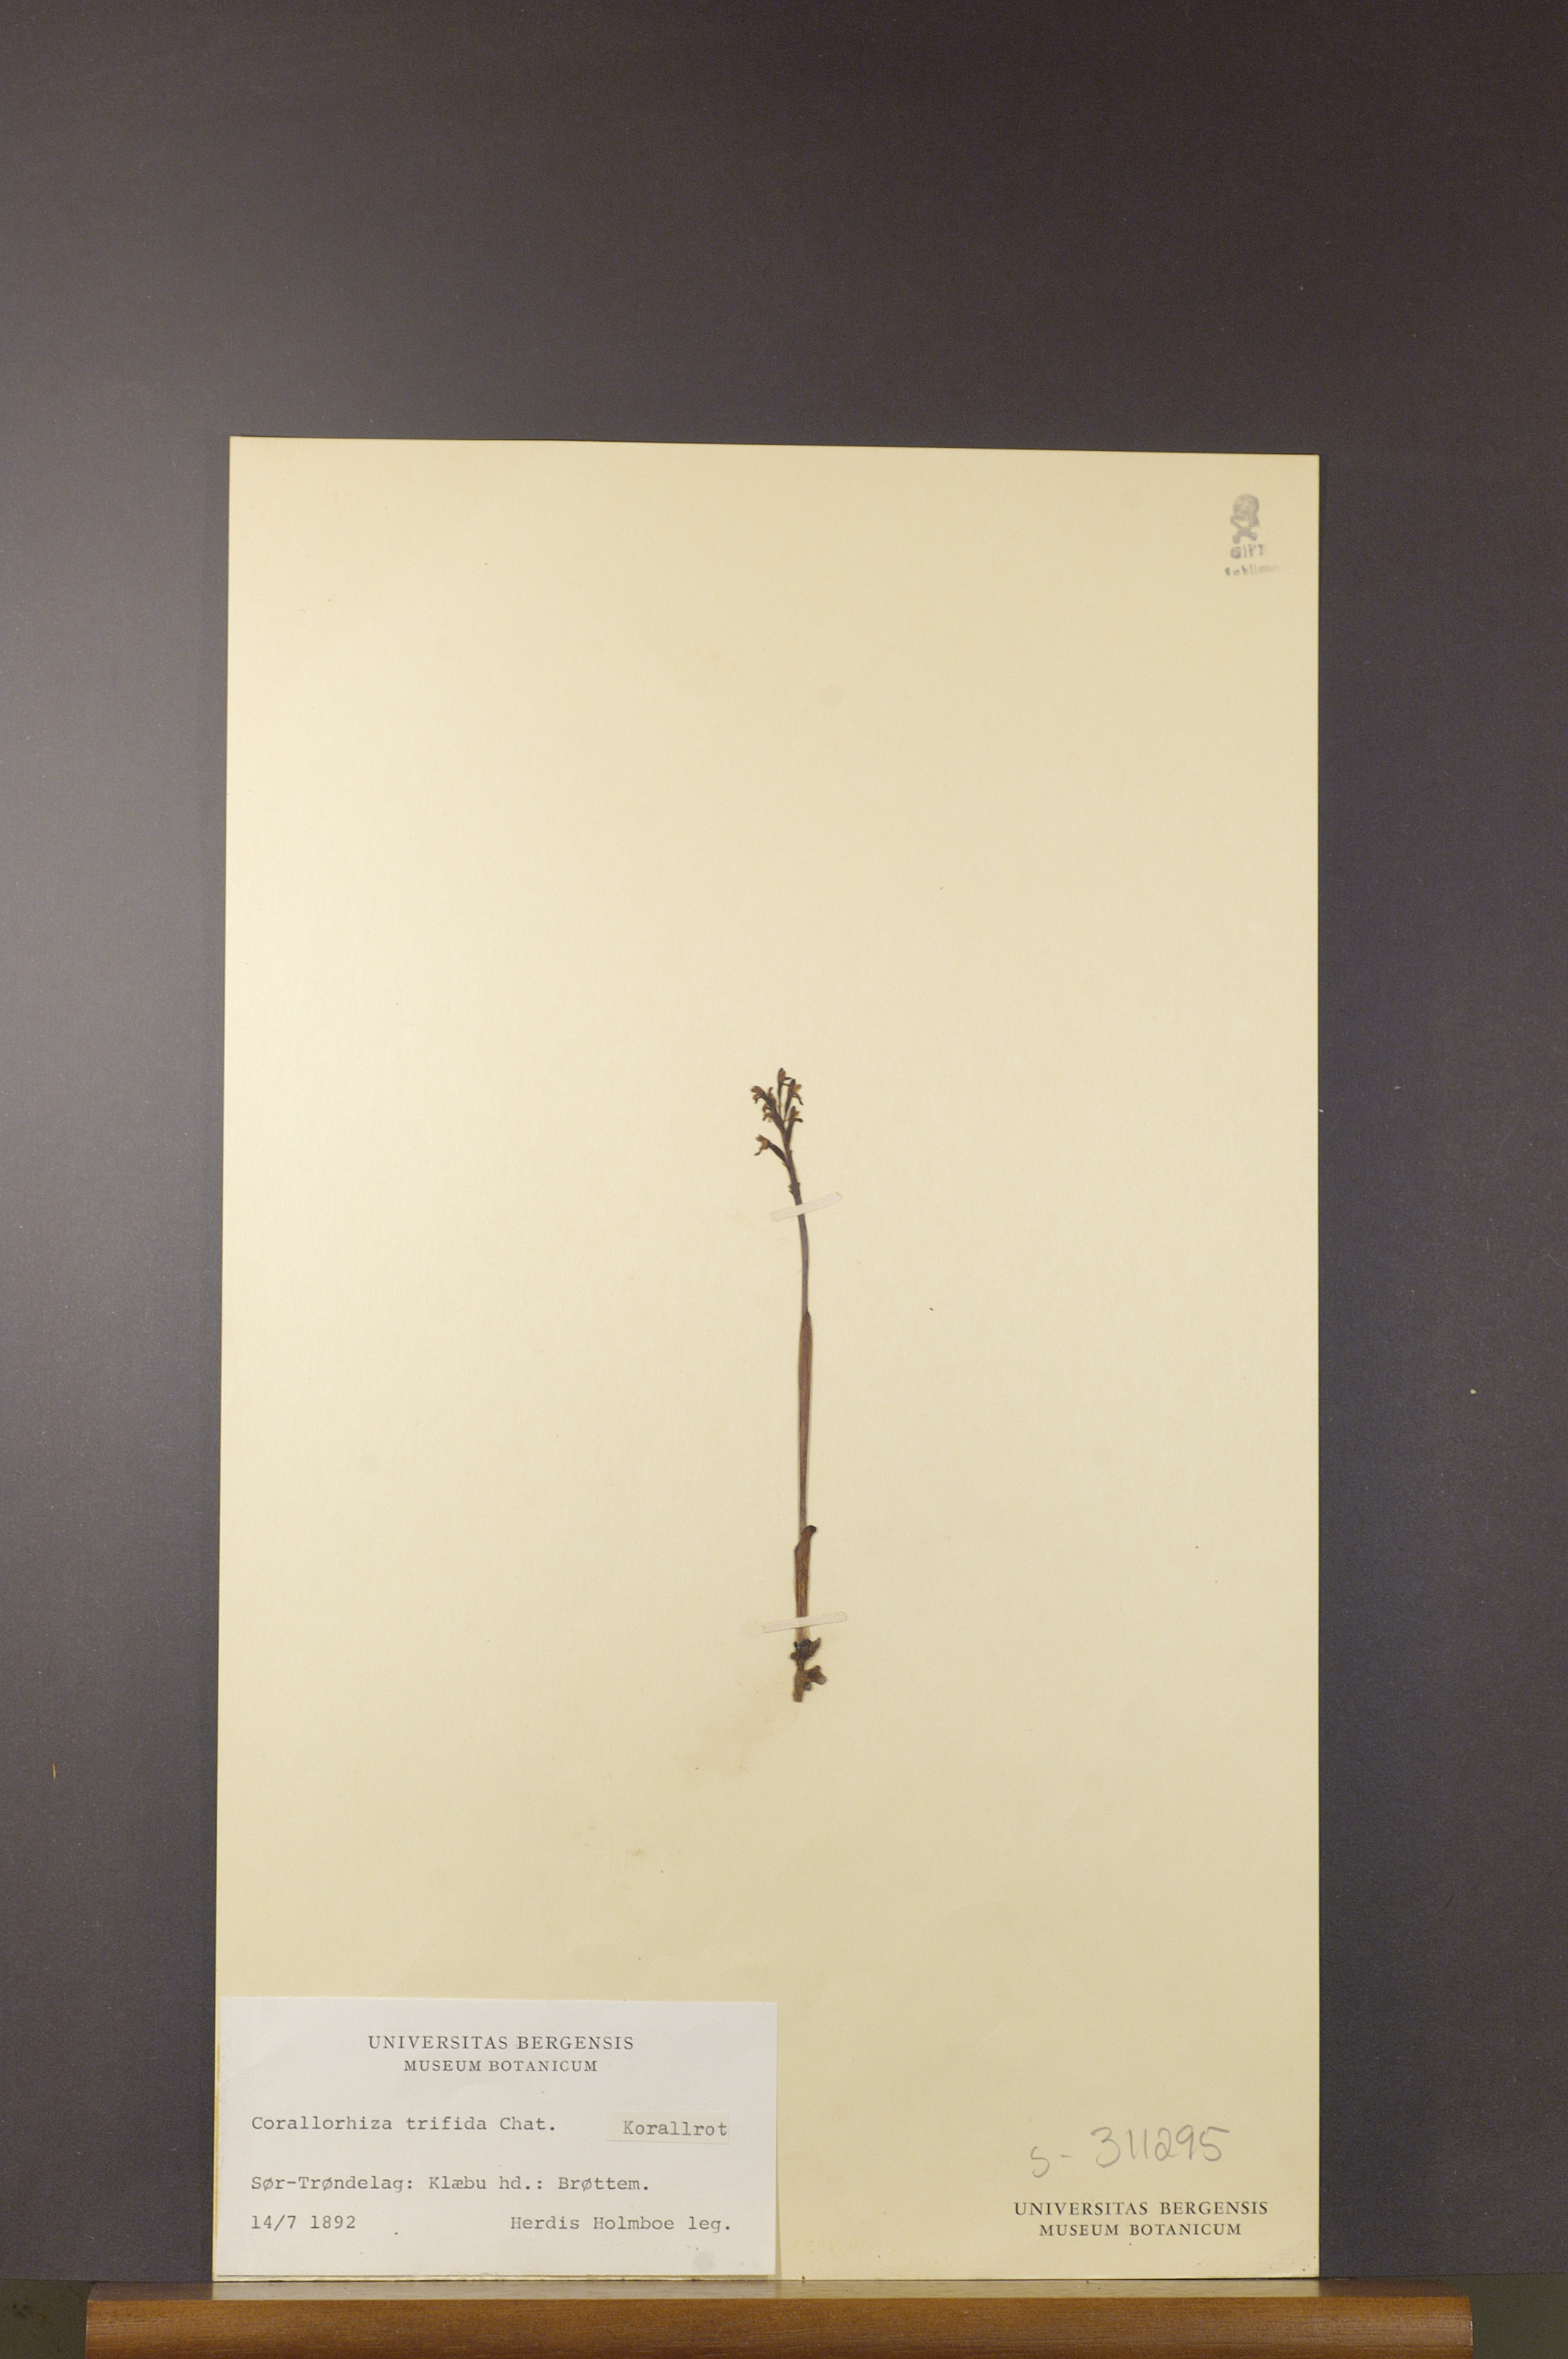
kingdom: Plantae
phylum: Tracheophyta
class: Liliopsida
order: Asparagales
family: Orchidaceae
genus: Corallorhiza
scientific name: Corallorhiza trifida
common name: Yellow coralroot
